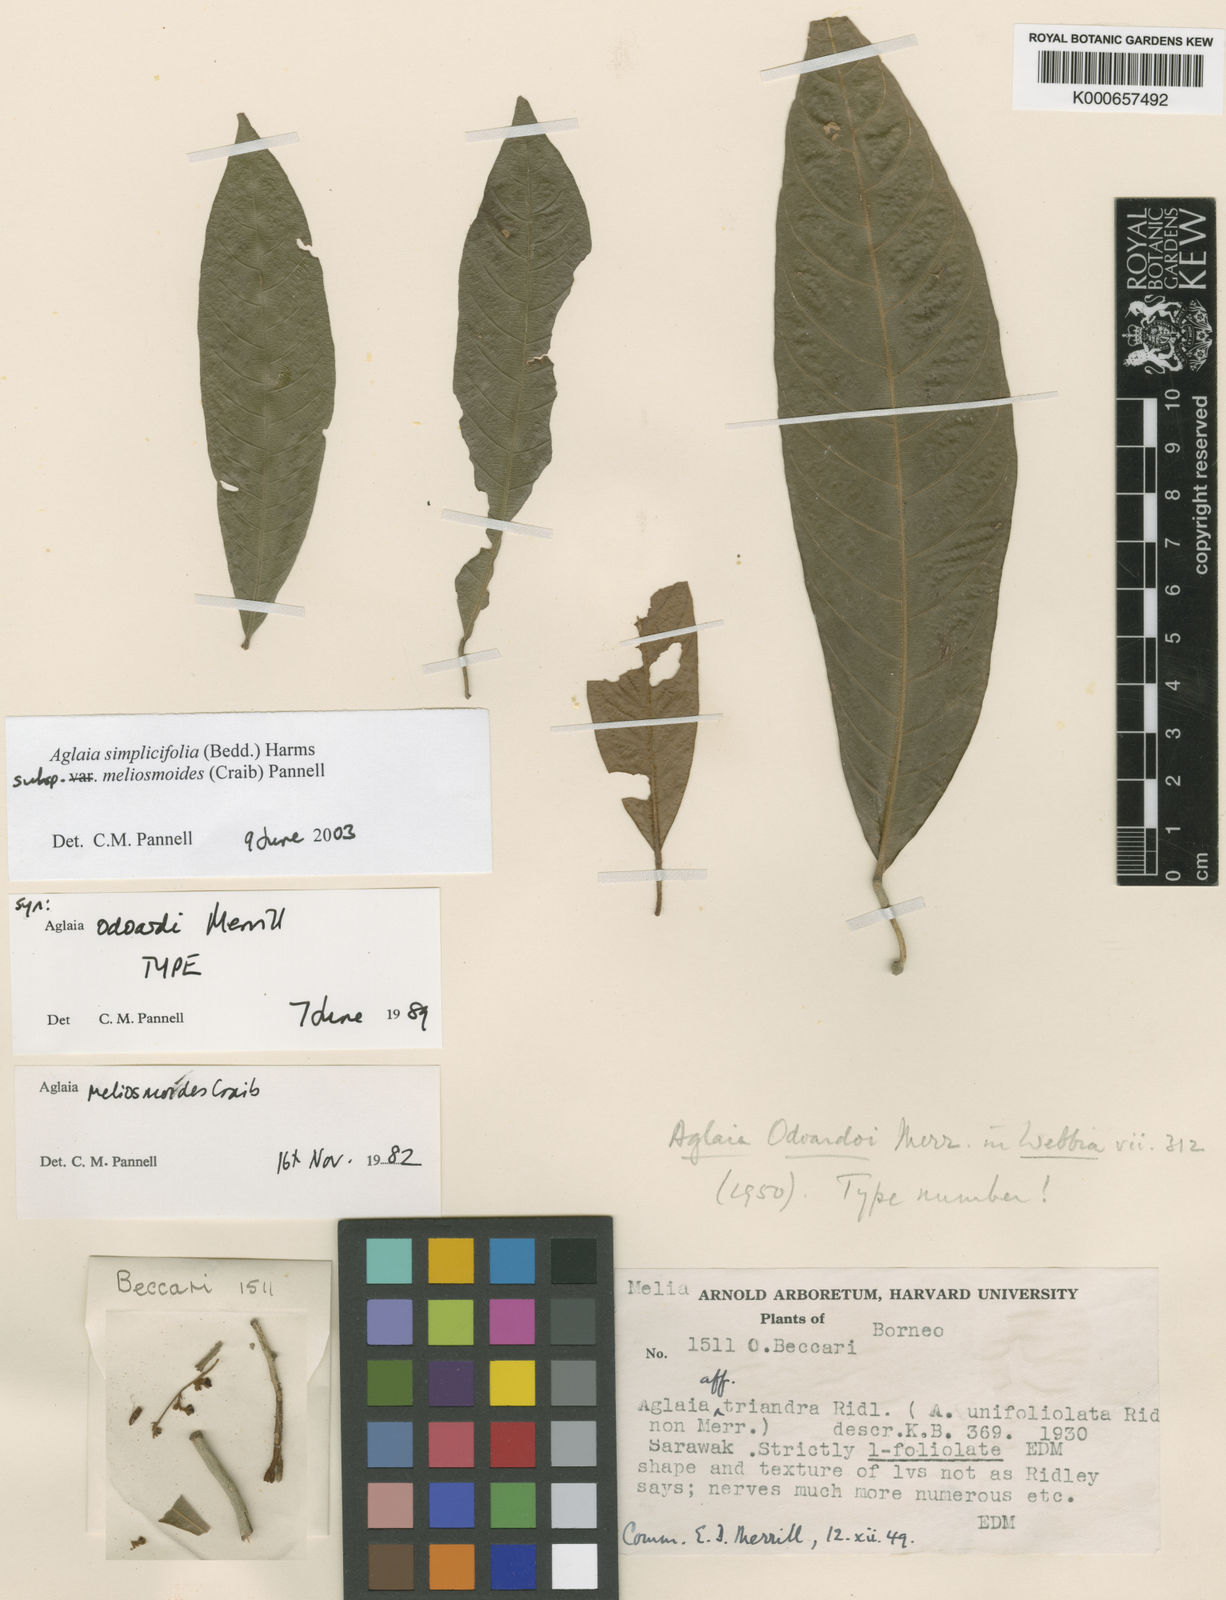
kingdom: Plantae
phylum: Tracheophyta
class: Magnoliopsida
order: Sapindales
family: Meliaceae
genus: Aglaia
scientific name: Aglaia simplicifolia
